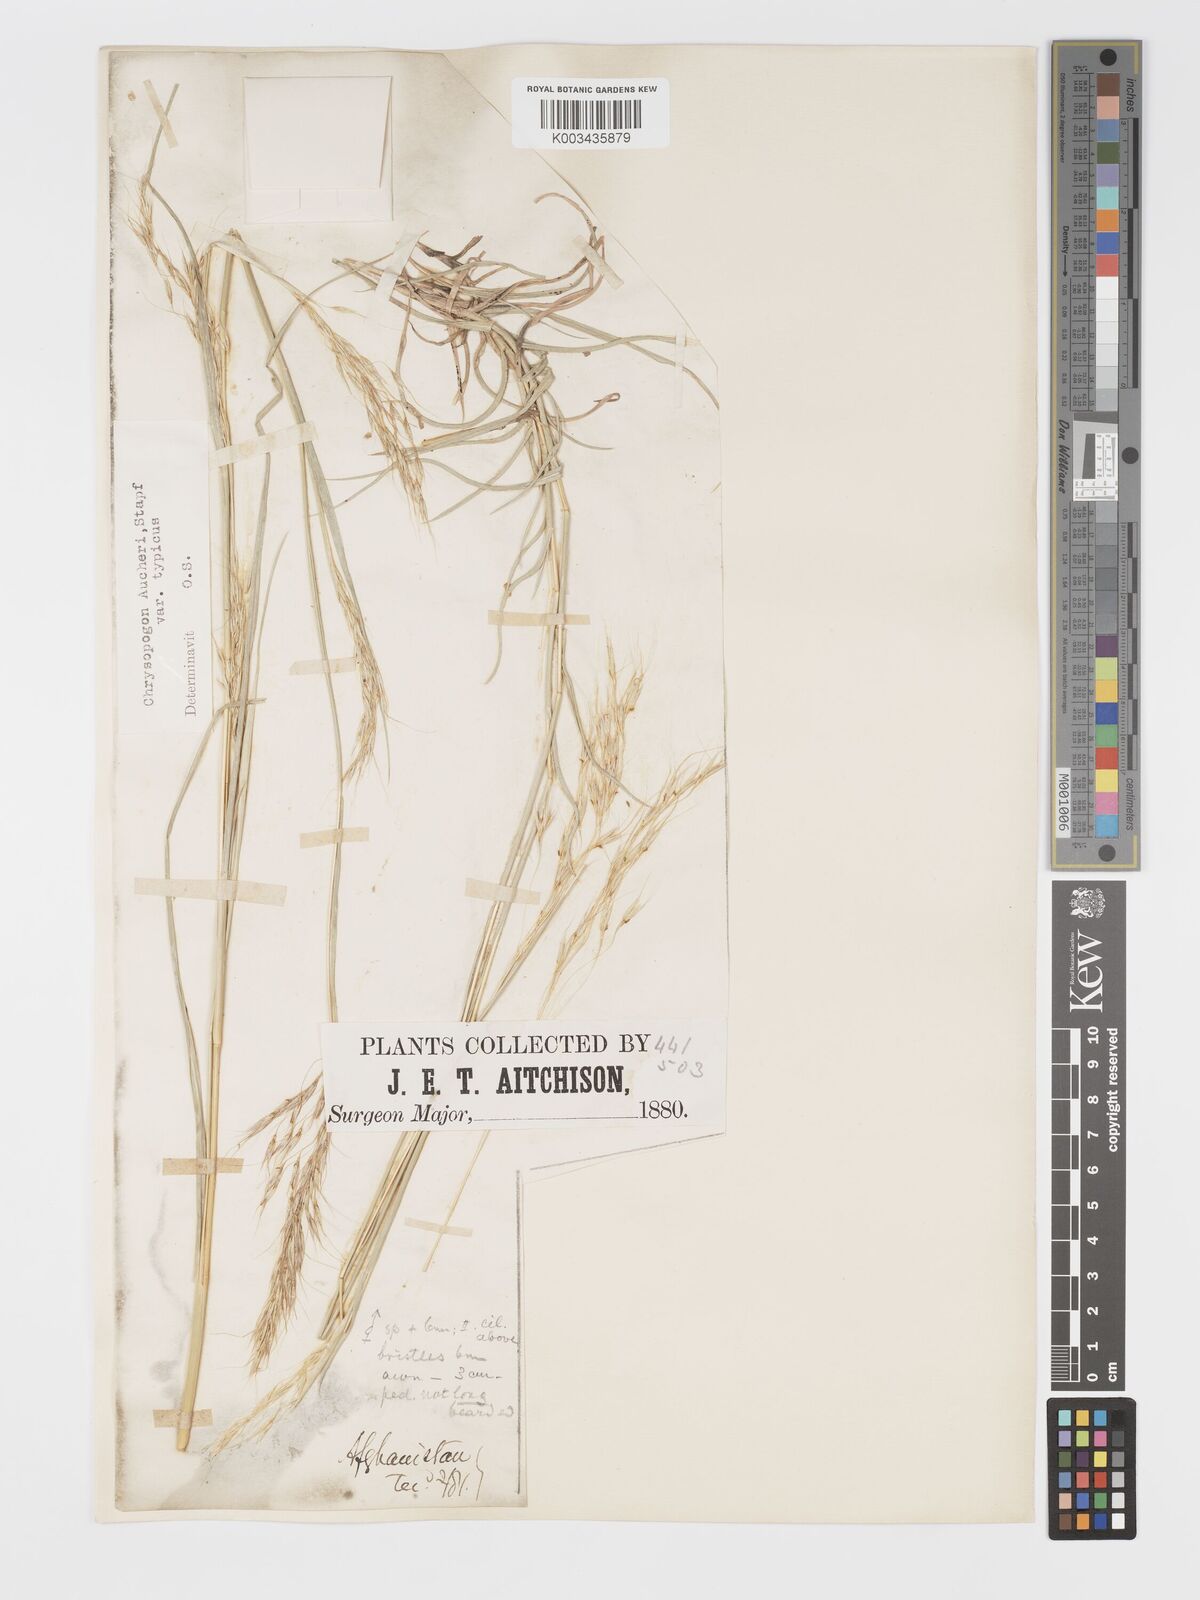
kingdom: Plantae
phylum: Tracheophyta
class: Liliopsida
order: Poales
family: Poaceae
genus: Chrysopogon
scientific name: Chrysopogon serrulatus
